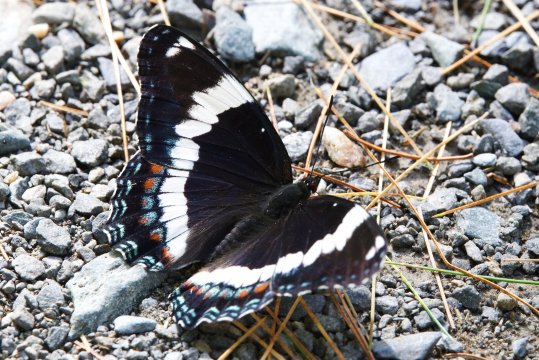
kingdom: Animalia
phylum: Arthropoda
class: Insecta
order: Lepidoptera
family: Nymphalidae
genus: Limenitis
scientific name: Limenitis arthemis
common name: Red-spotted Admiral
